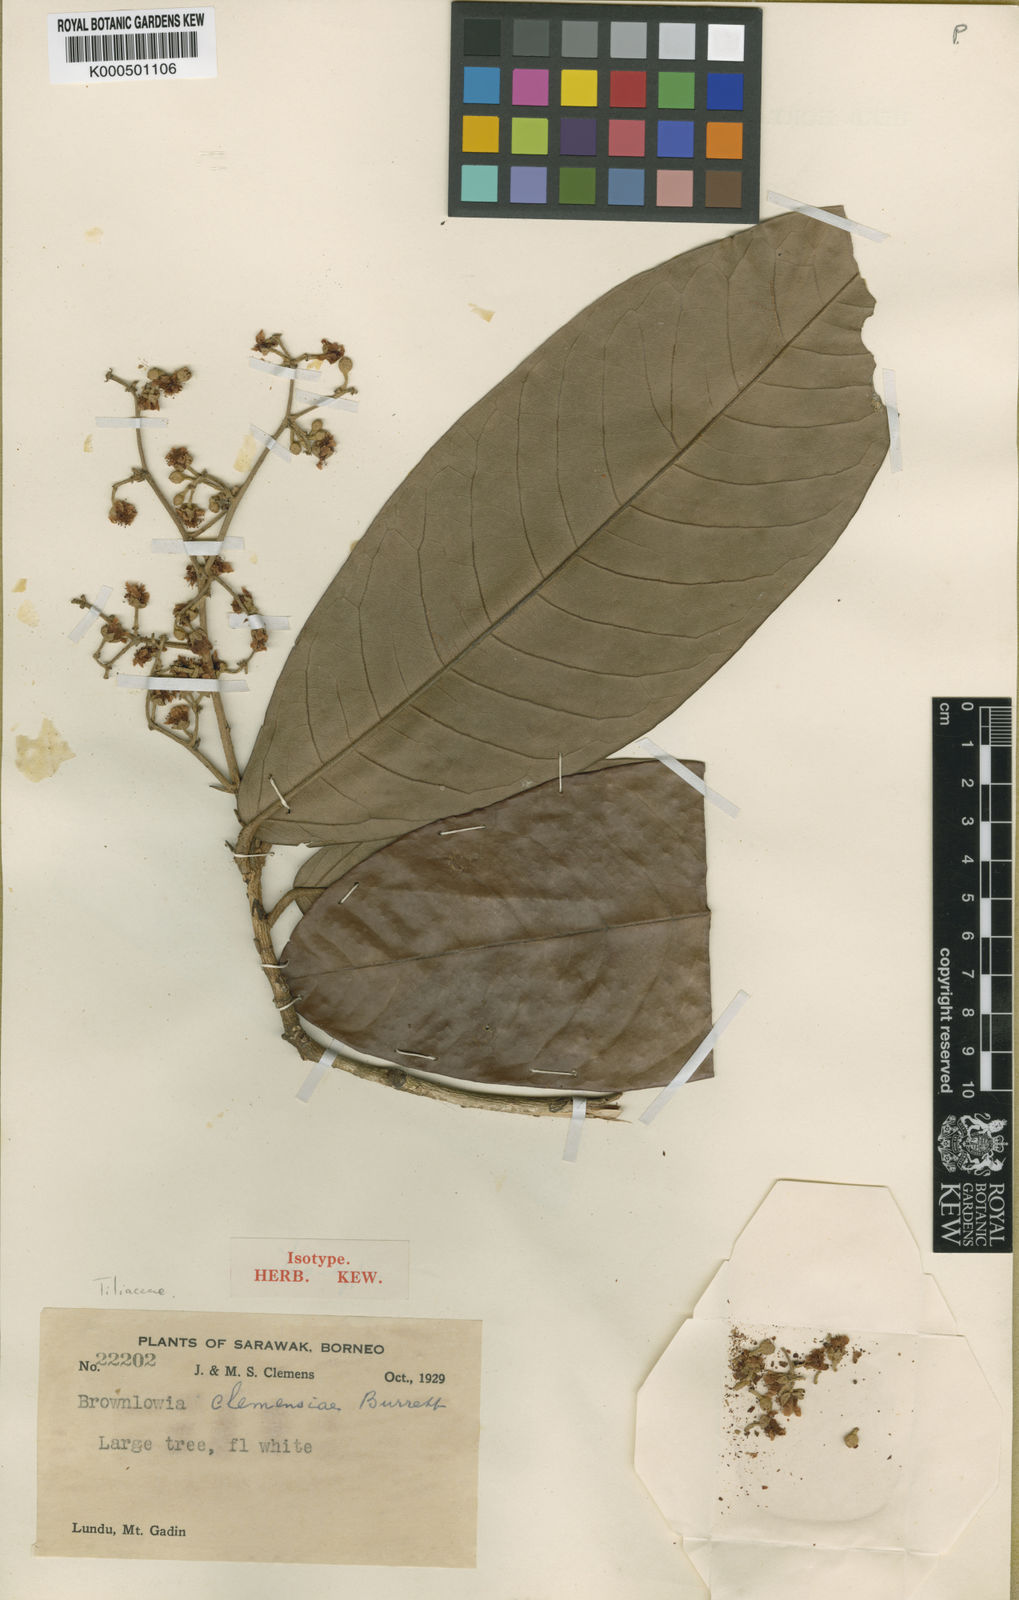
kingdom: Plantae
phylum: Tracheophyta
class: Magnoliopsida
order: Malvales
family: Malvaceae
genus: Jarandersonia
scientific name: Jarandersonia clemensiae
